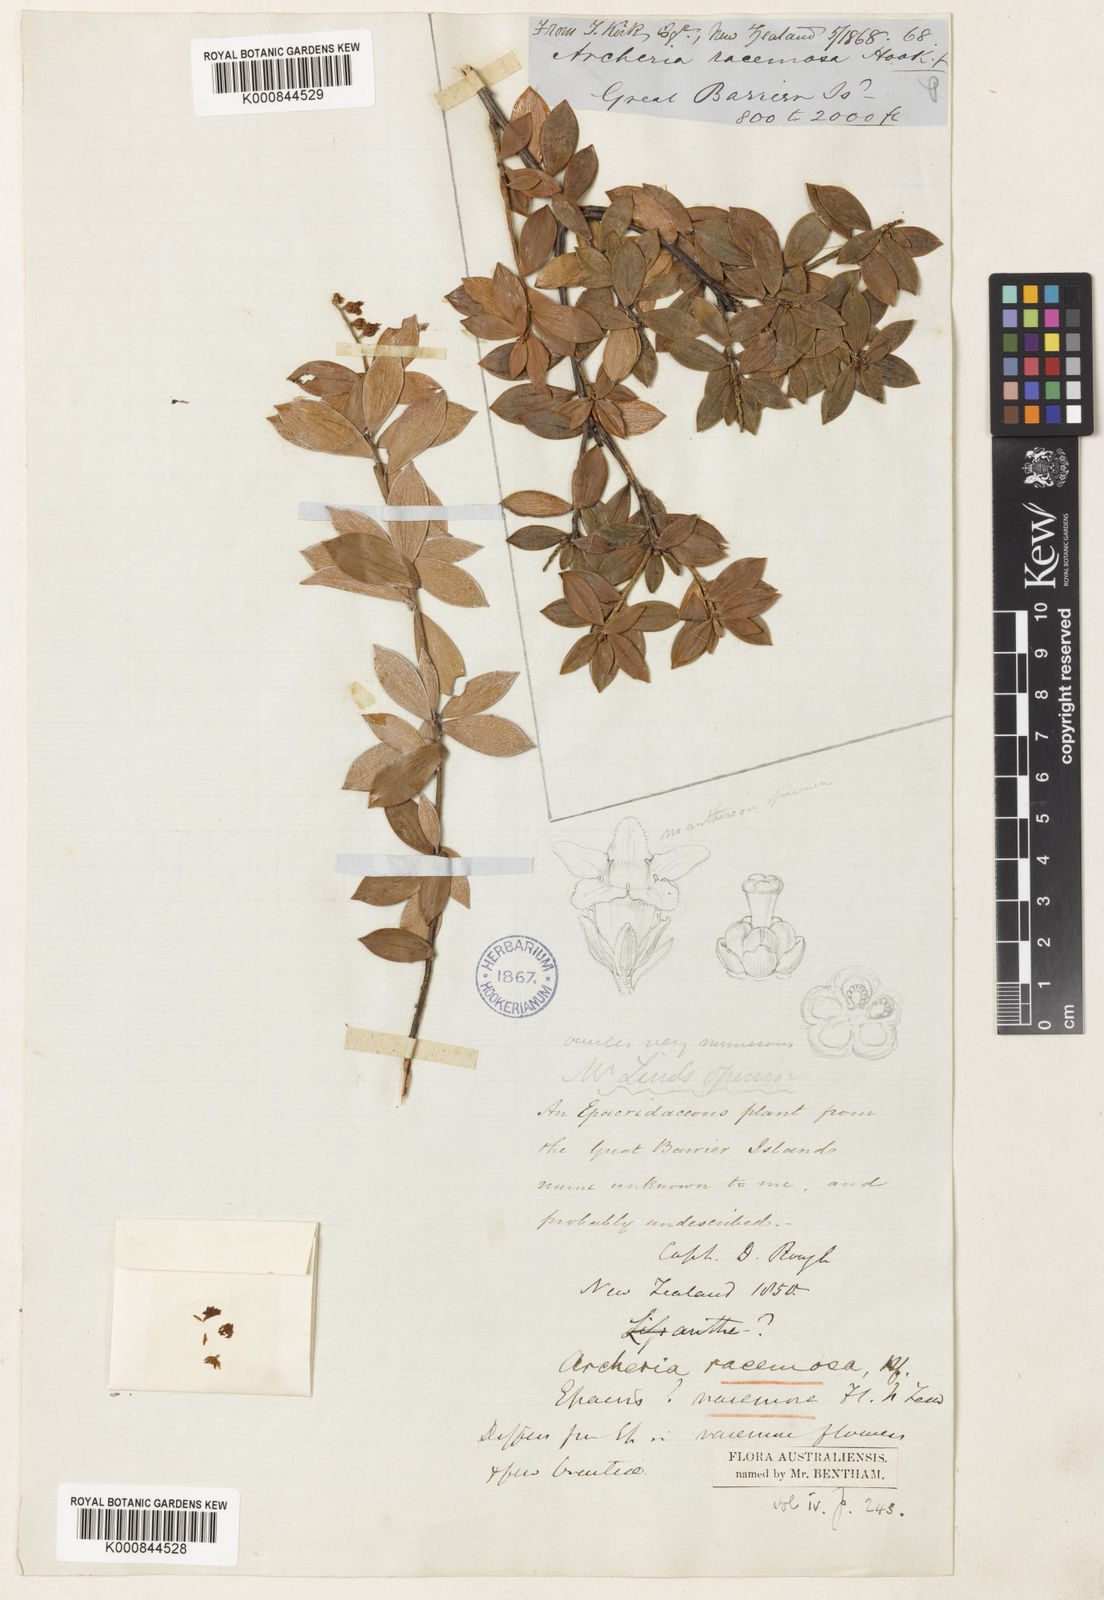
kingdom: Plantae
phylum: Tracheophyta
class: Magnoliopsida
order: Ericales
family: Ericaceae
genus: Archeria
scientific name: Archeria racemosa
